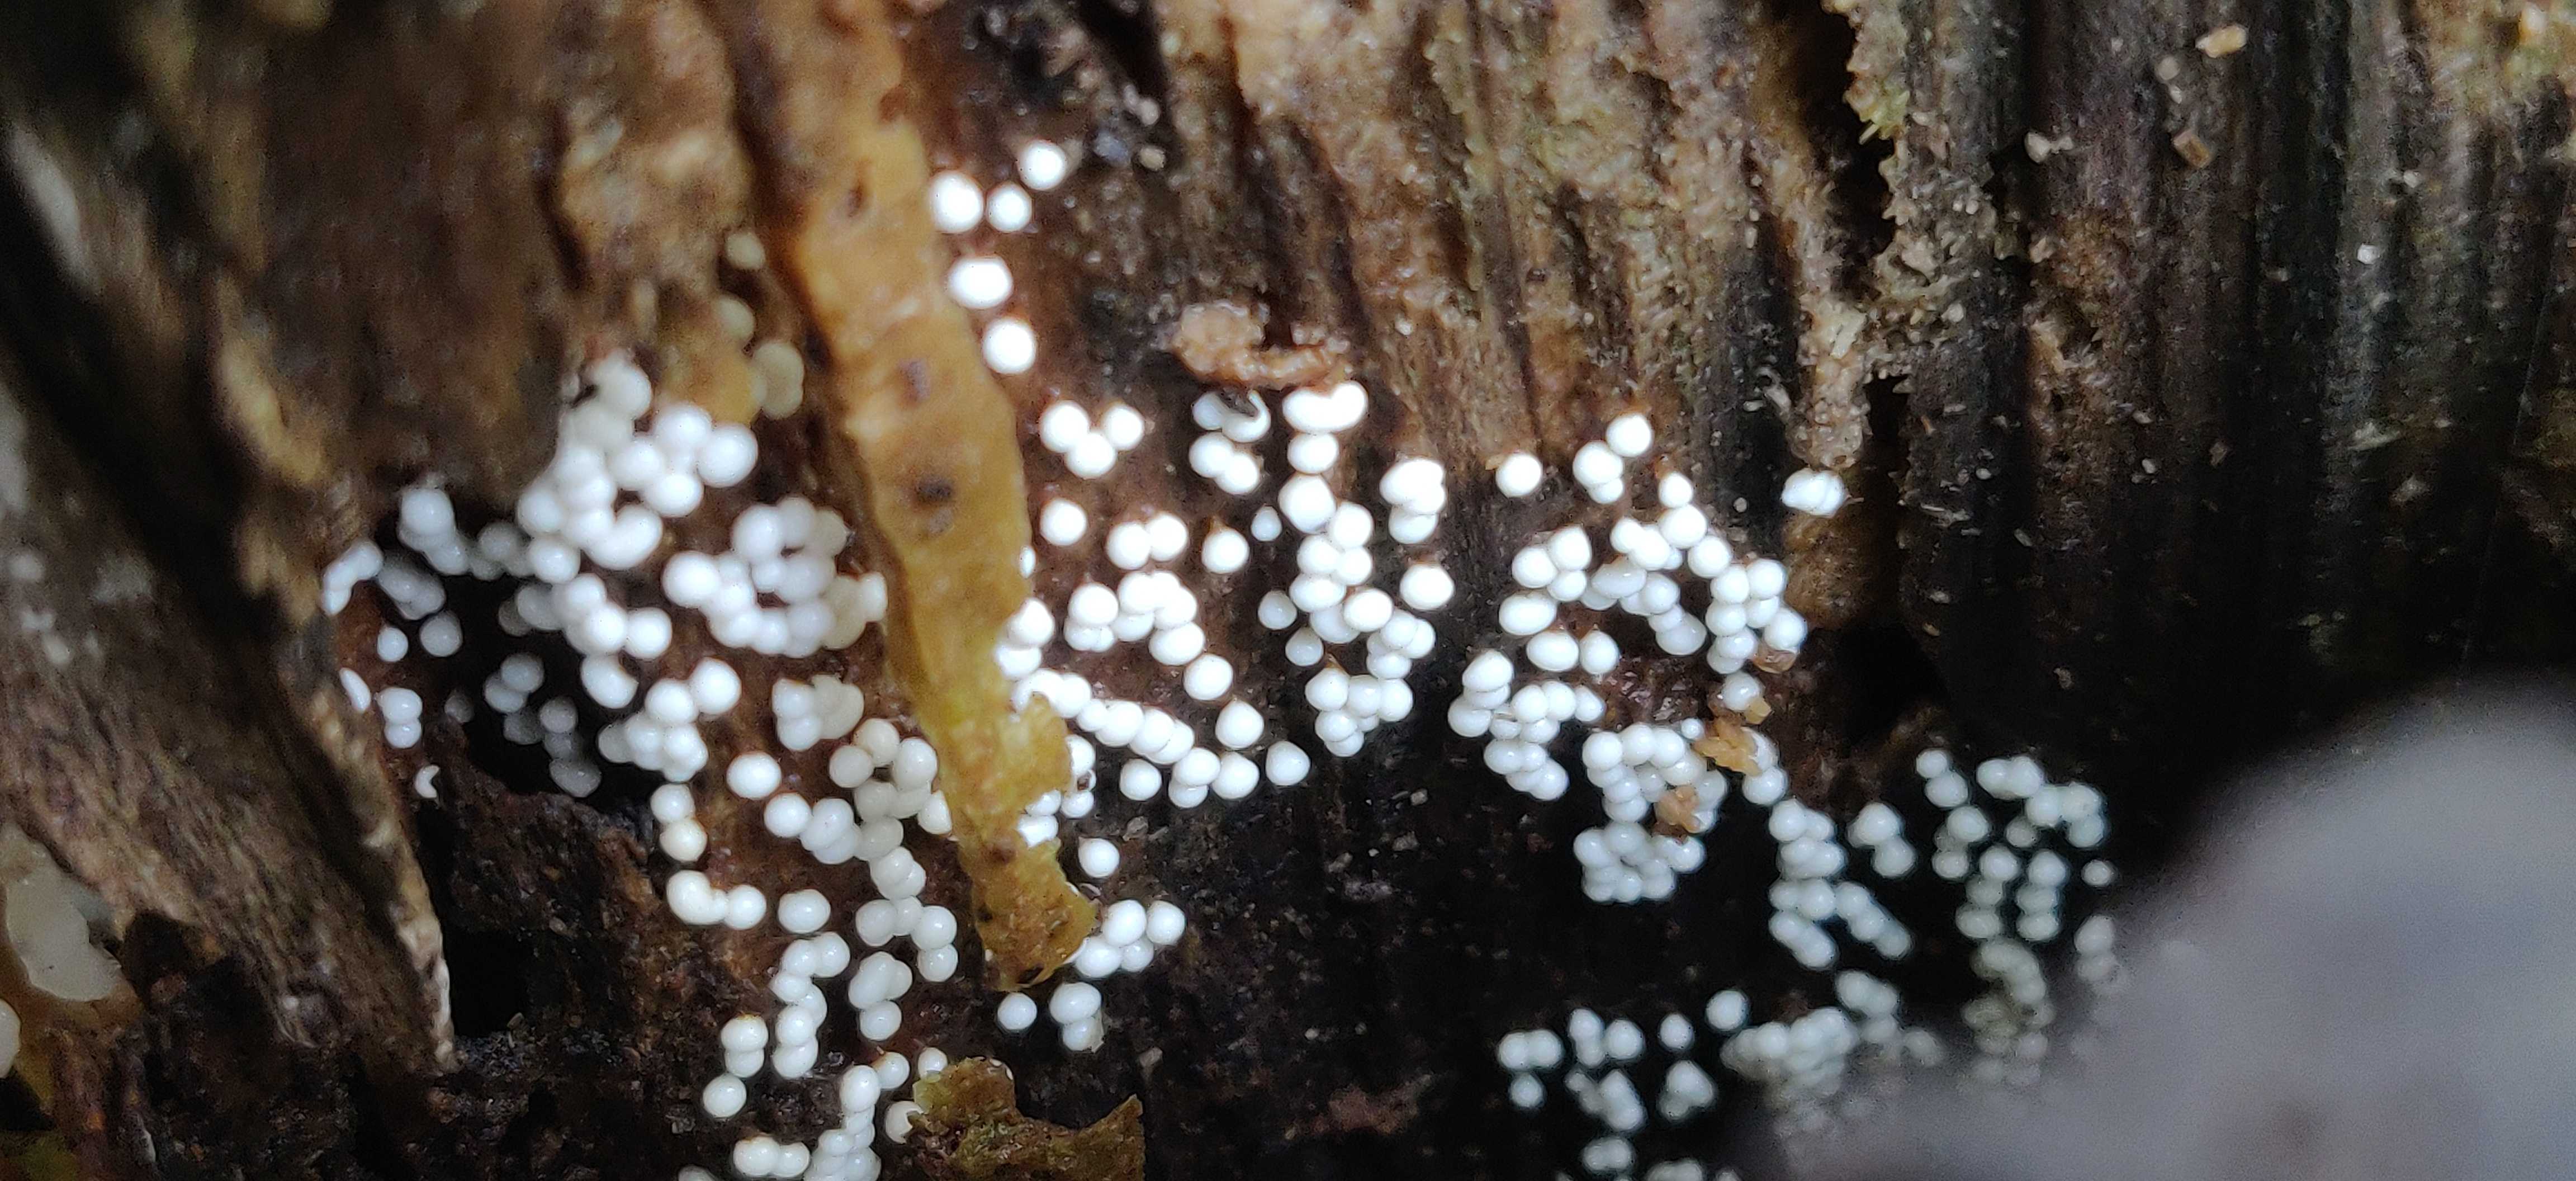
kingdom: Protozoa
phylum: Mycetozoa
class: Myxomycetes
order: Trichiales
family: Trichiaceae
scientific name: Trichiaceae
